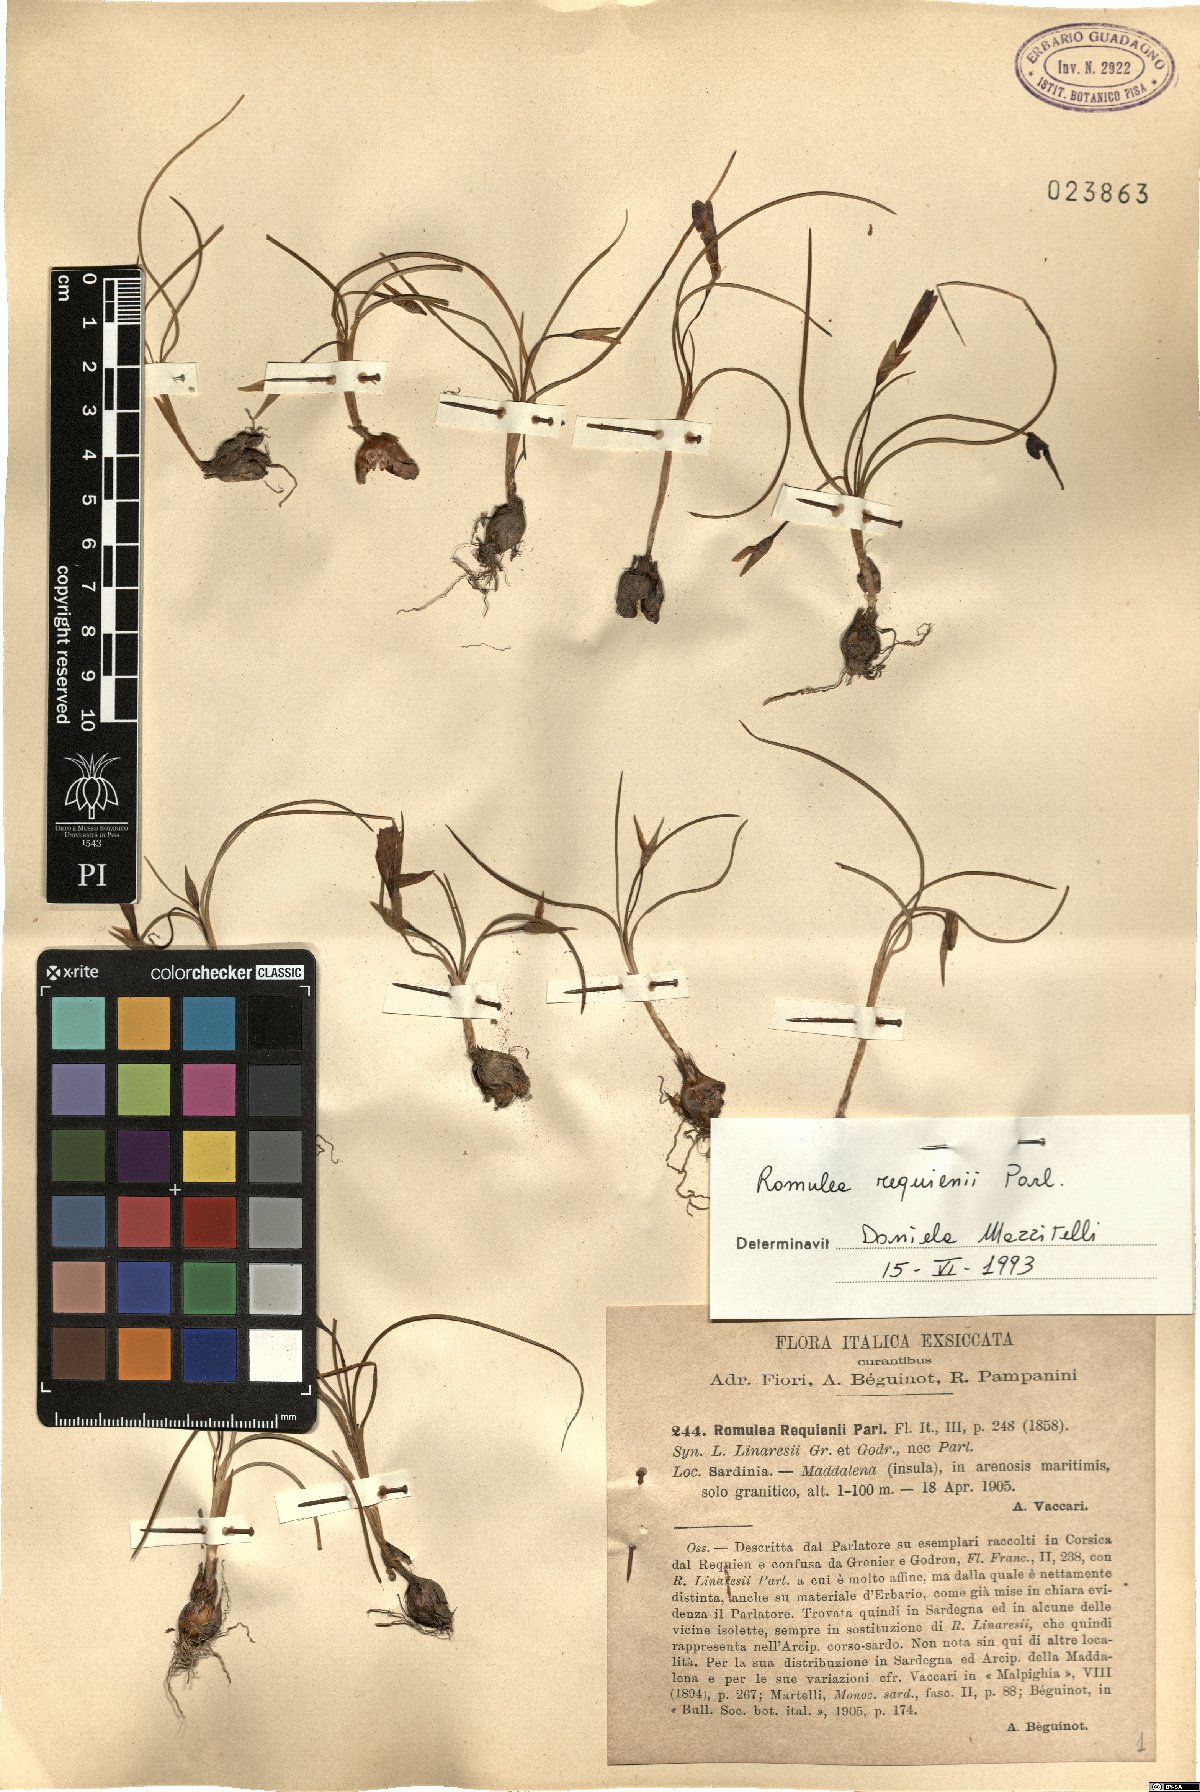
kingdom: Plantae
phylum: Tracheophyta
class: Liliopsida
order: Asparagales
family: Iridaceae
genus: Romulea
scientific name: Romulea requienii
